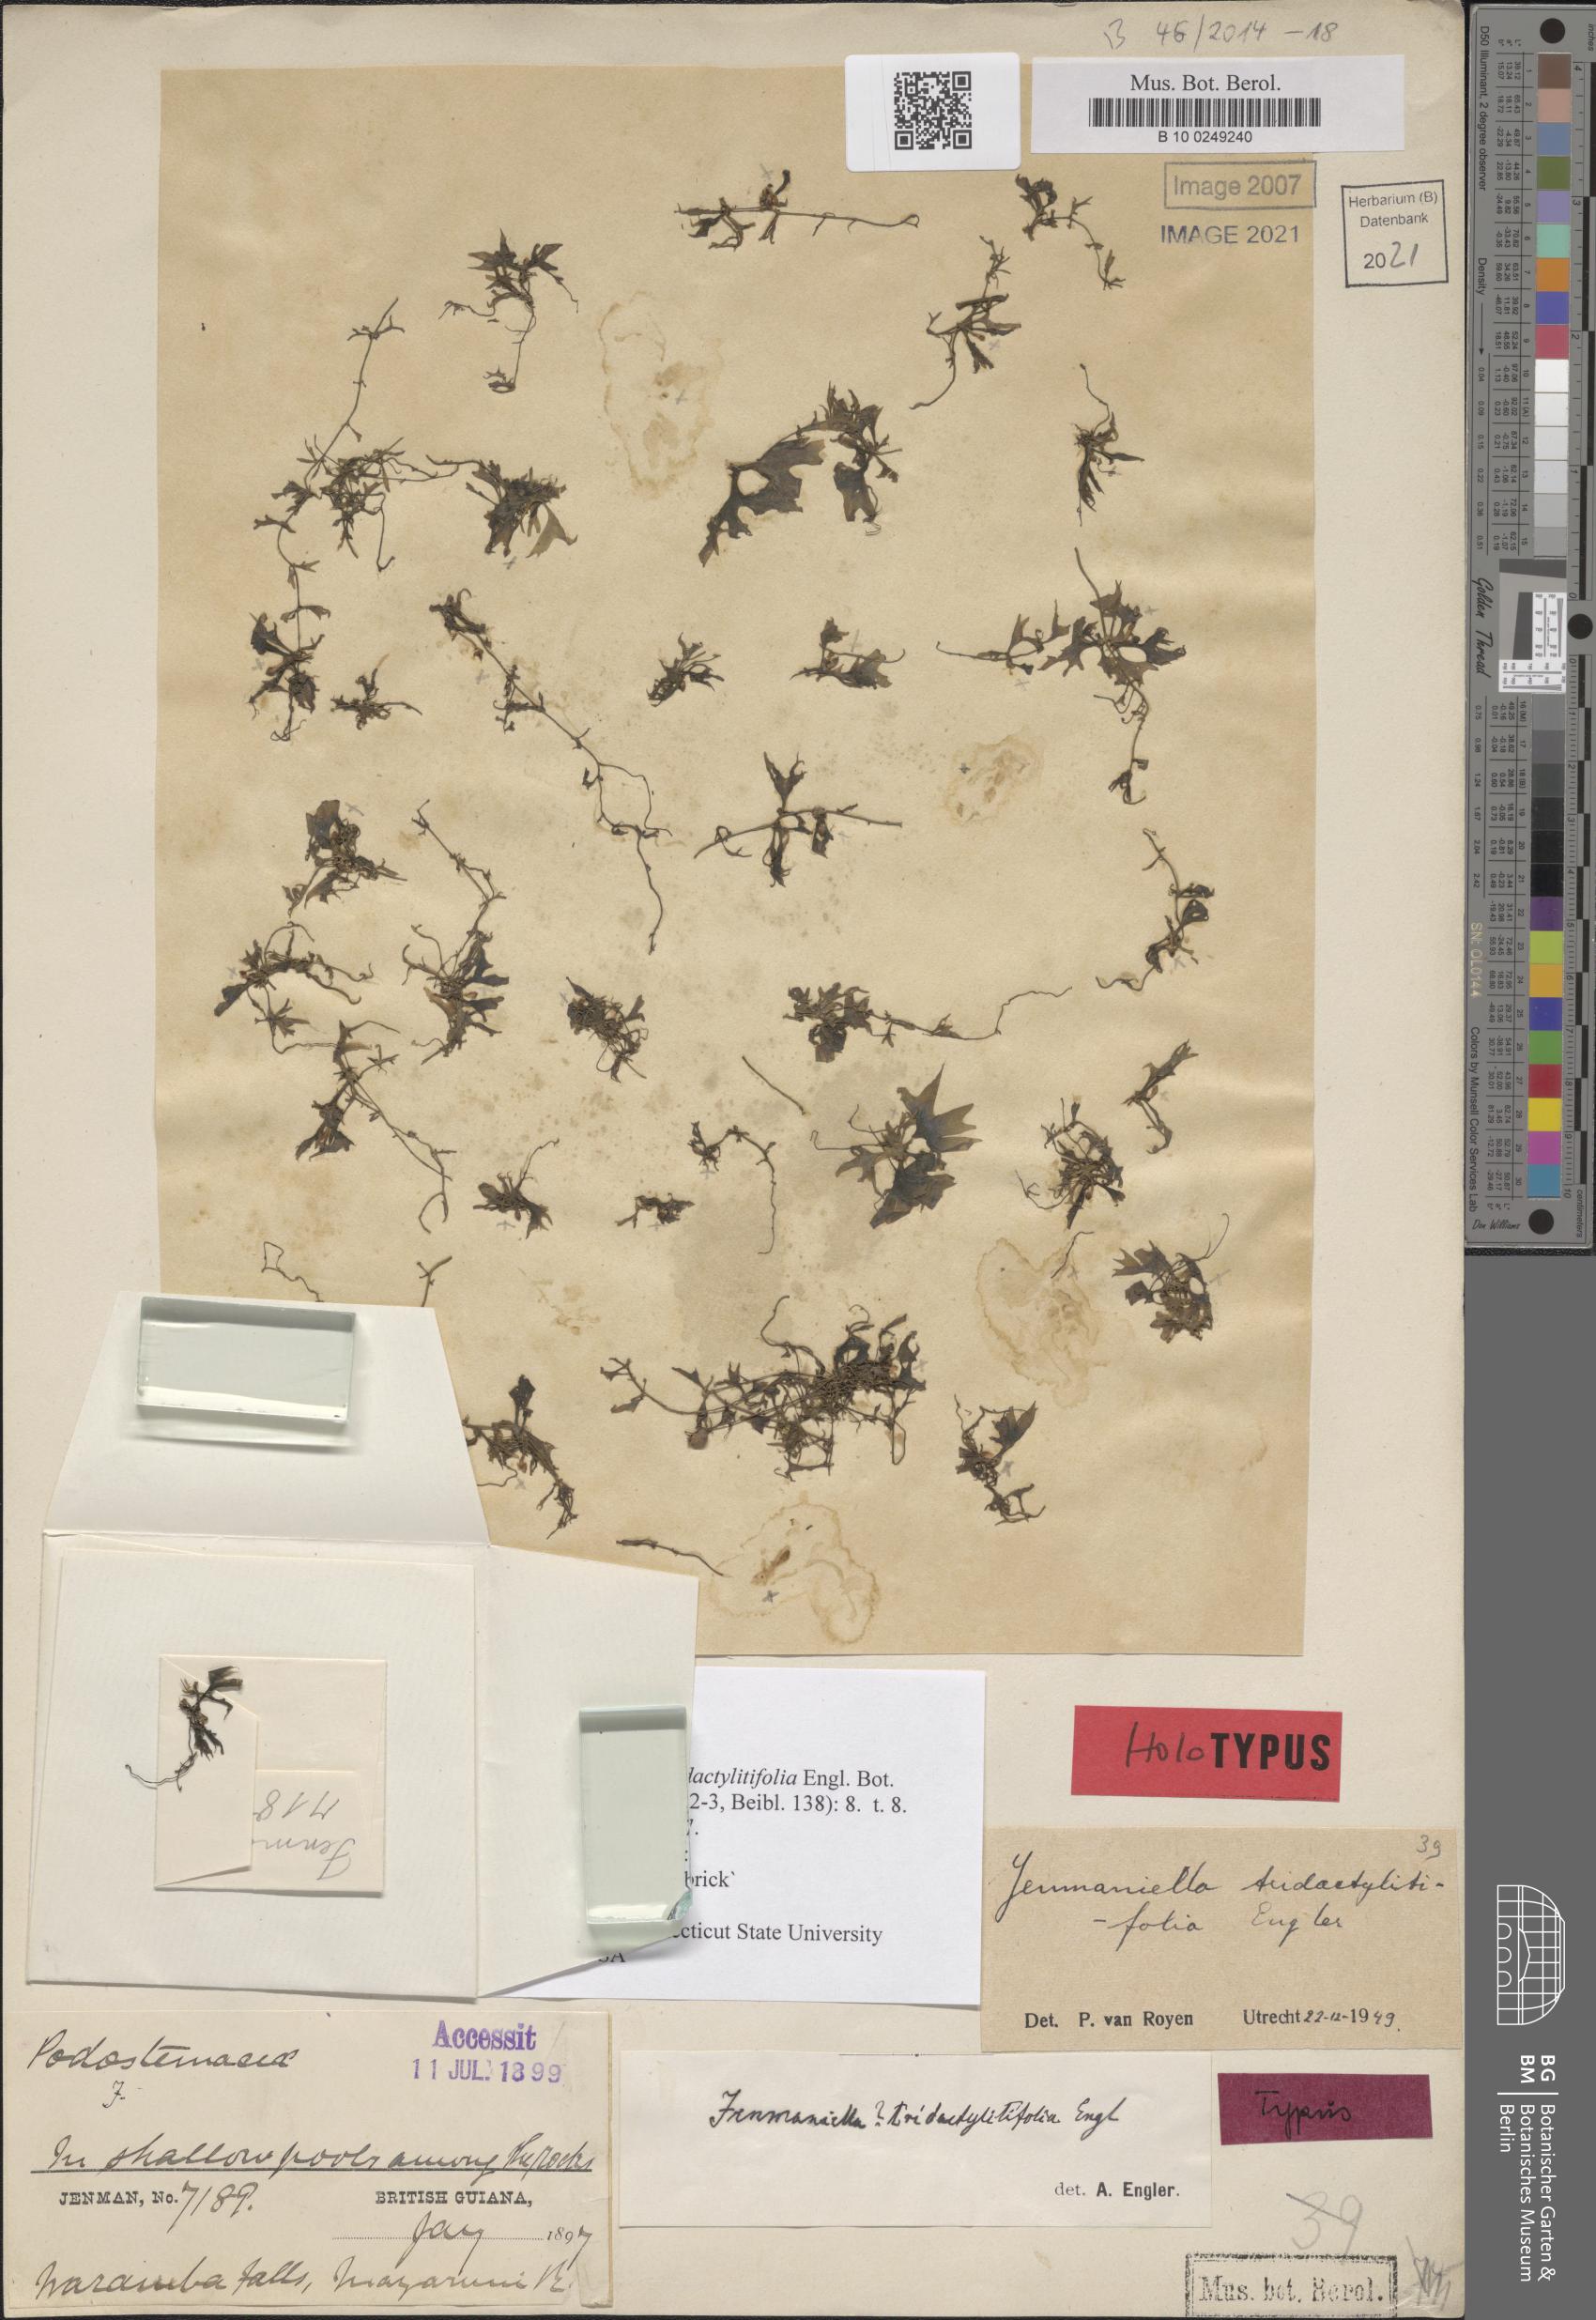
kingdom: Plantae
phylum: Tracheophyta
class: Magnoliopsida
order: Malpighiales
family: Podostemaceae
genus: Lophogyne
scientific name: Lophogyne tridactylitifolia
